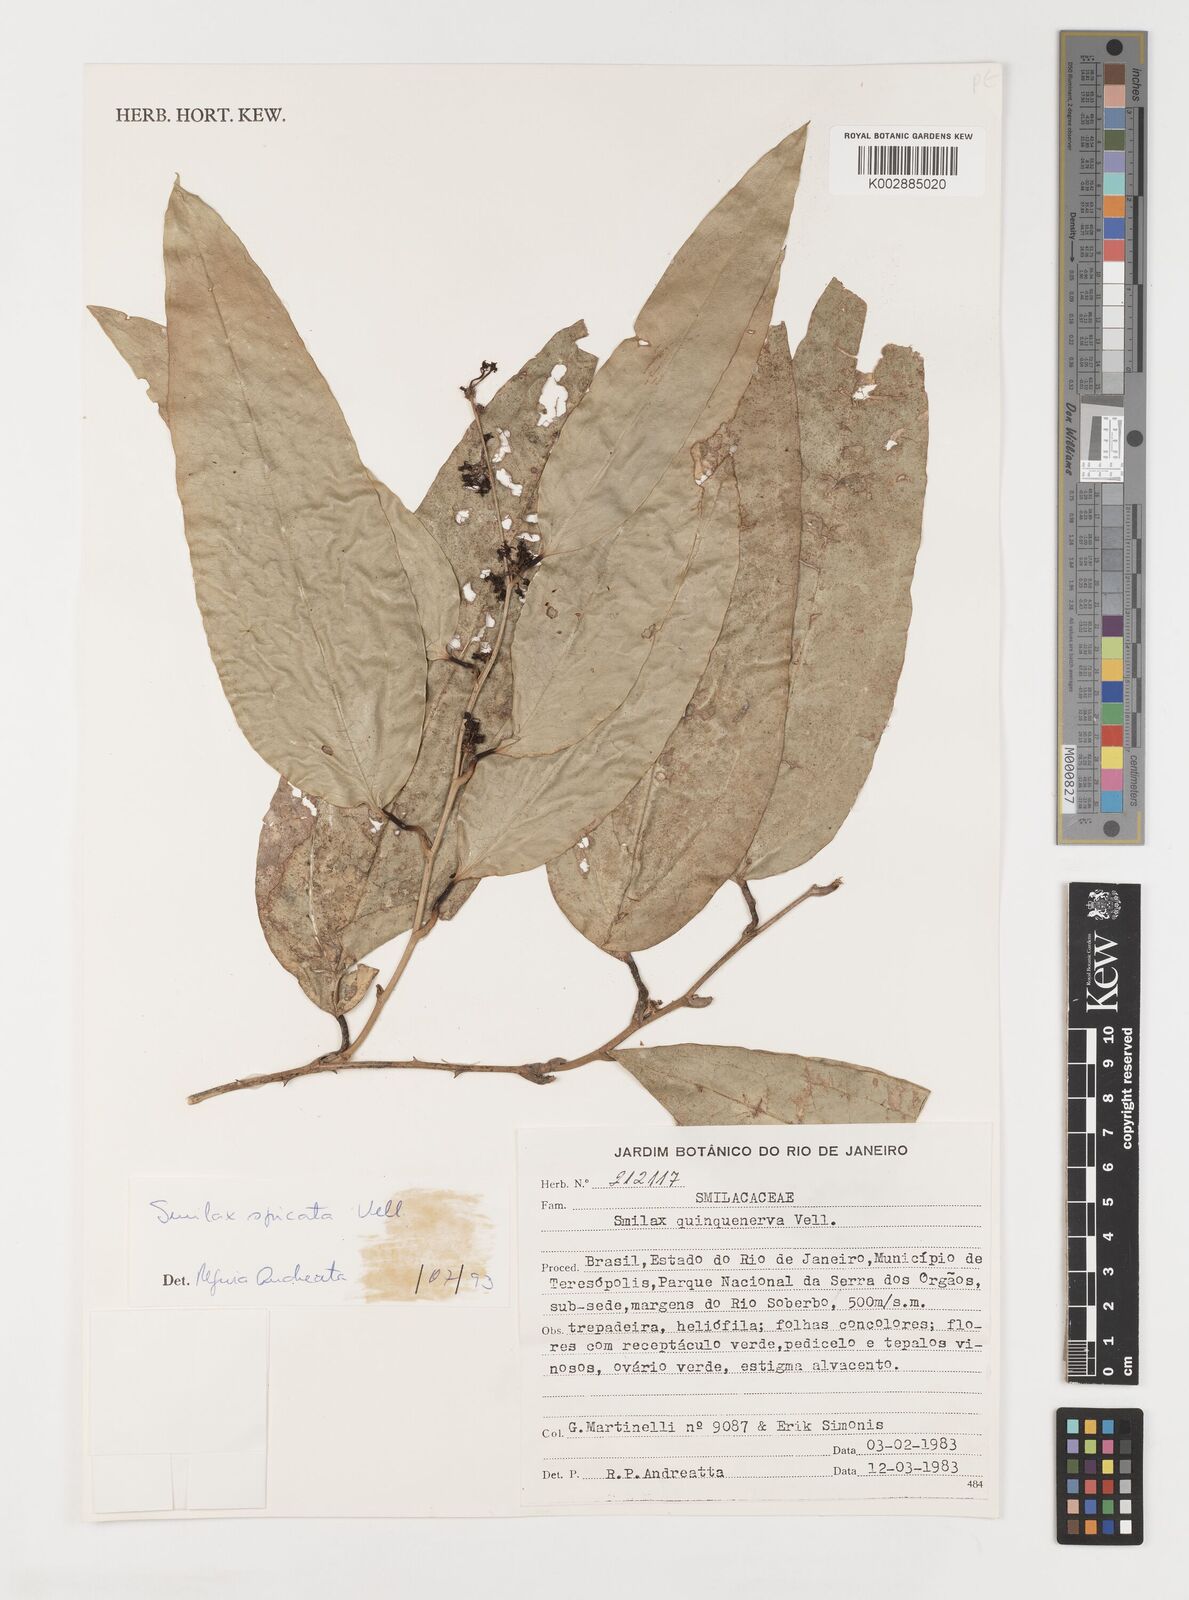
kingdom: Plantae
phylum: Tracheophyta
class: Liliopsida
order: Liliales
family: Smilacaceae
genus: Smilax
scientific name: Smilax spicata
